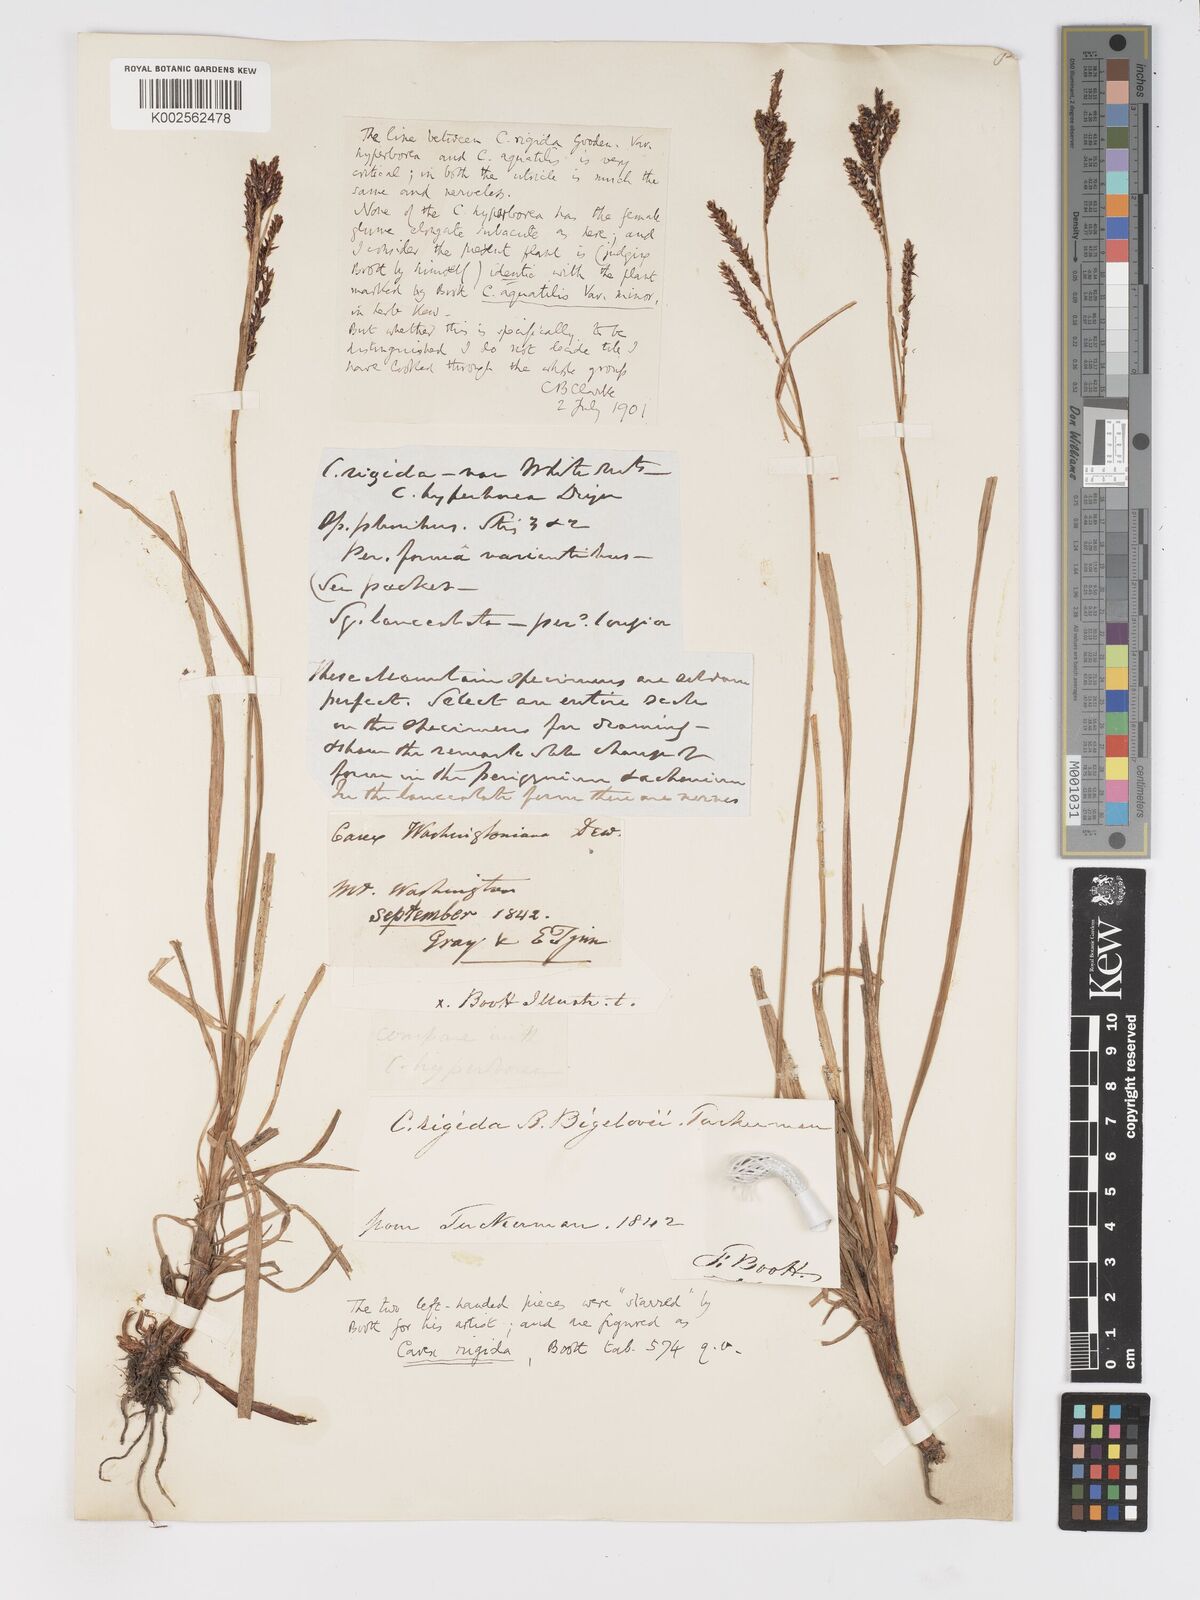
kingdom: Plantae
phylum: Tracheophyta
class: Liliopsida
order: Poales
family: Cyperaceae
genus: Carex
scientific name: Carex
